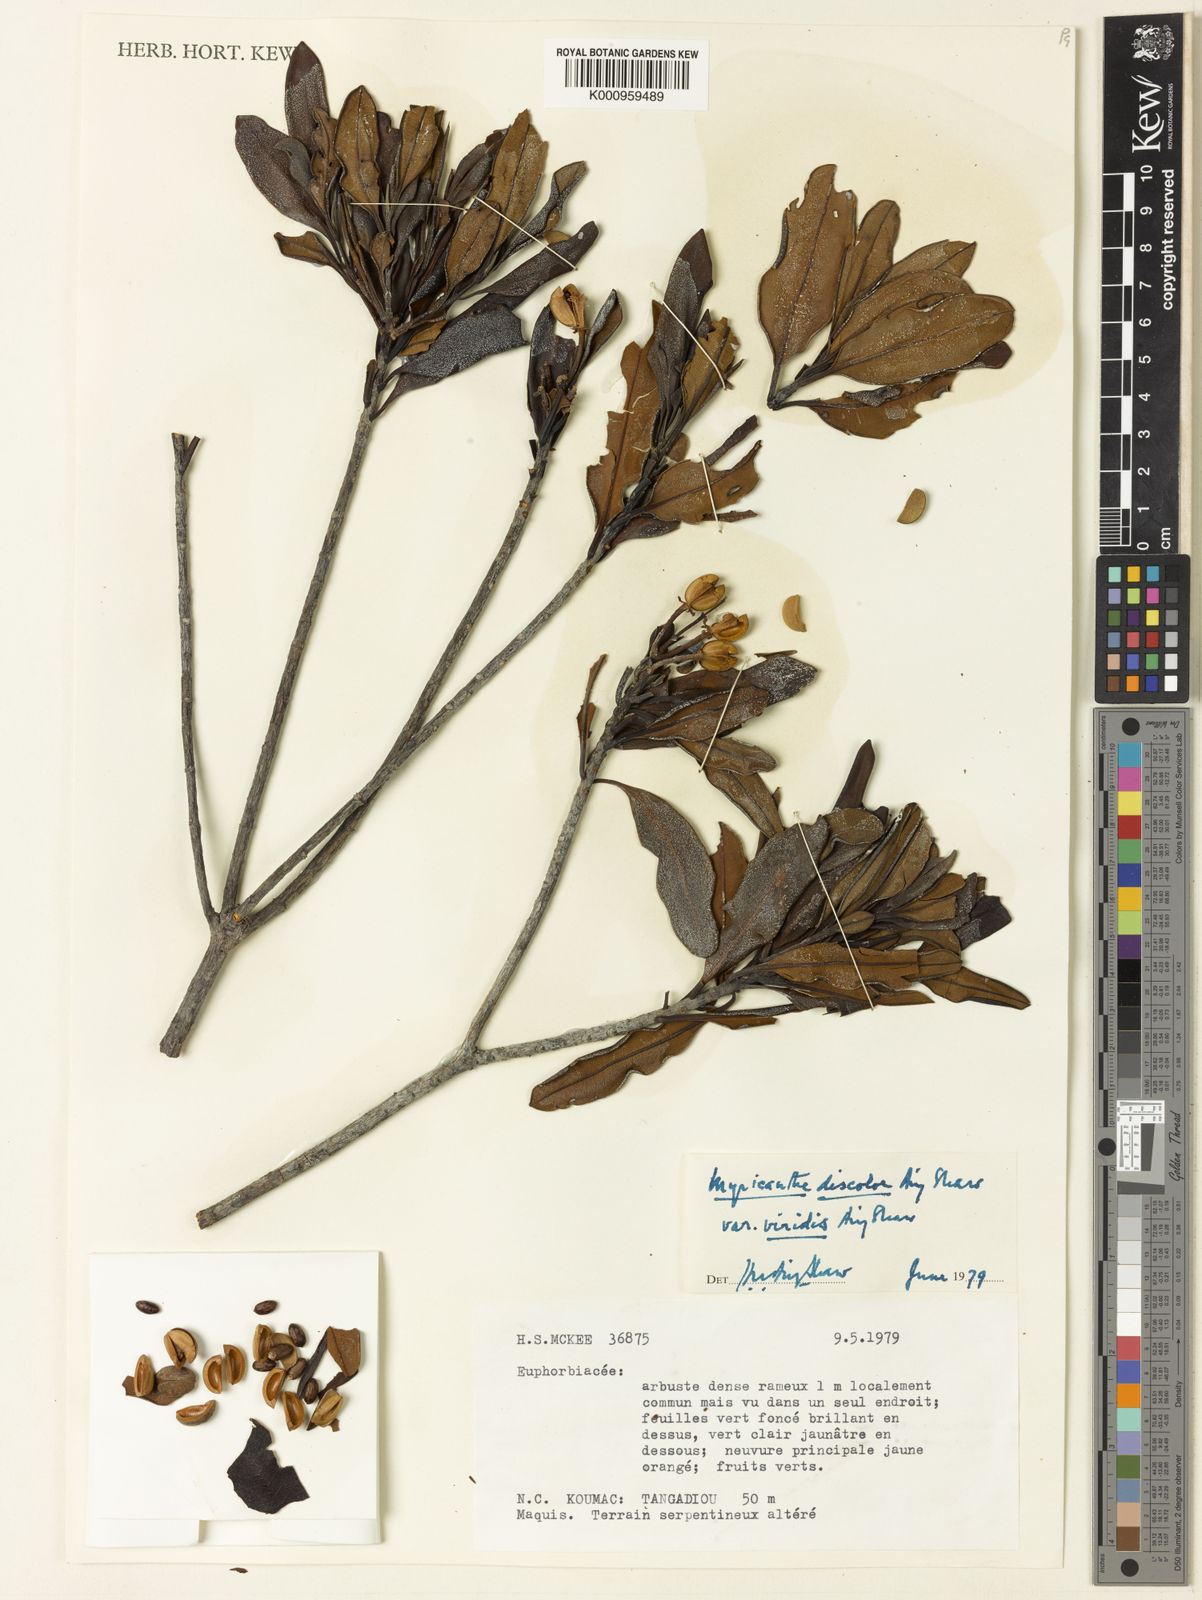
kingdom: Plantae
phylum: Tracheophyta
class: Magnoliopsida
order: Malpighiales
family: Euphorbiaceae
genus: Myricanthe
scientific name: Myricanthe discolor
